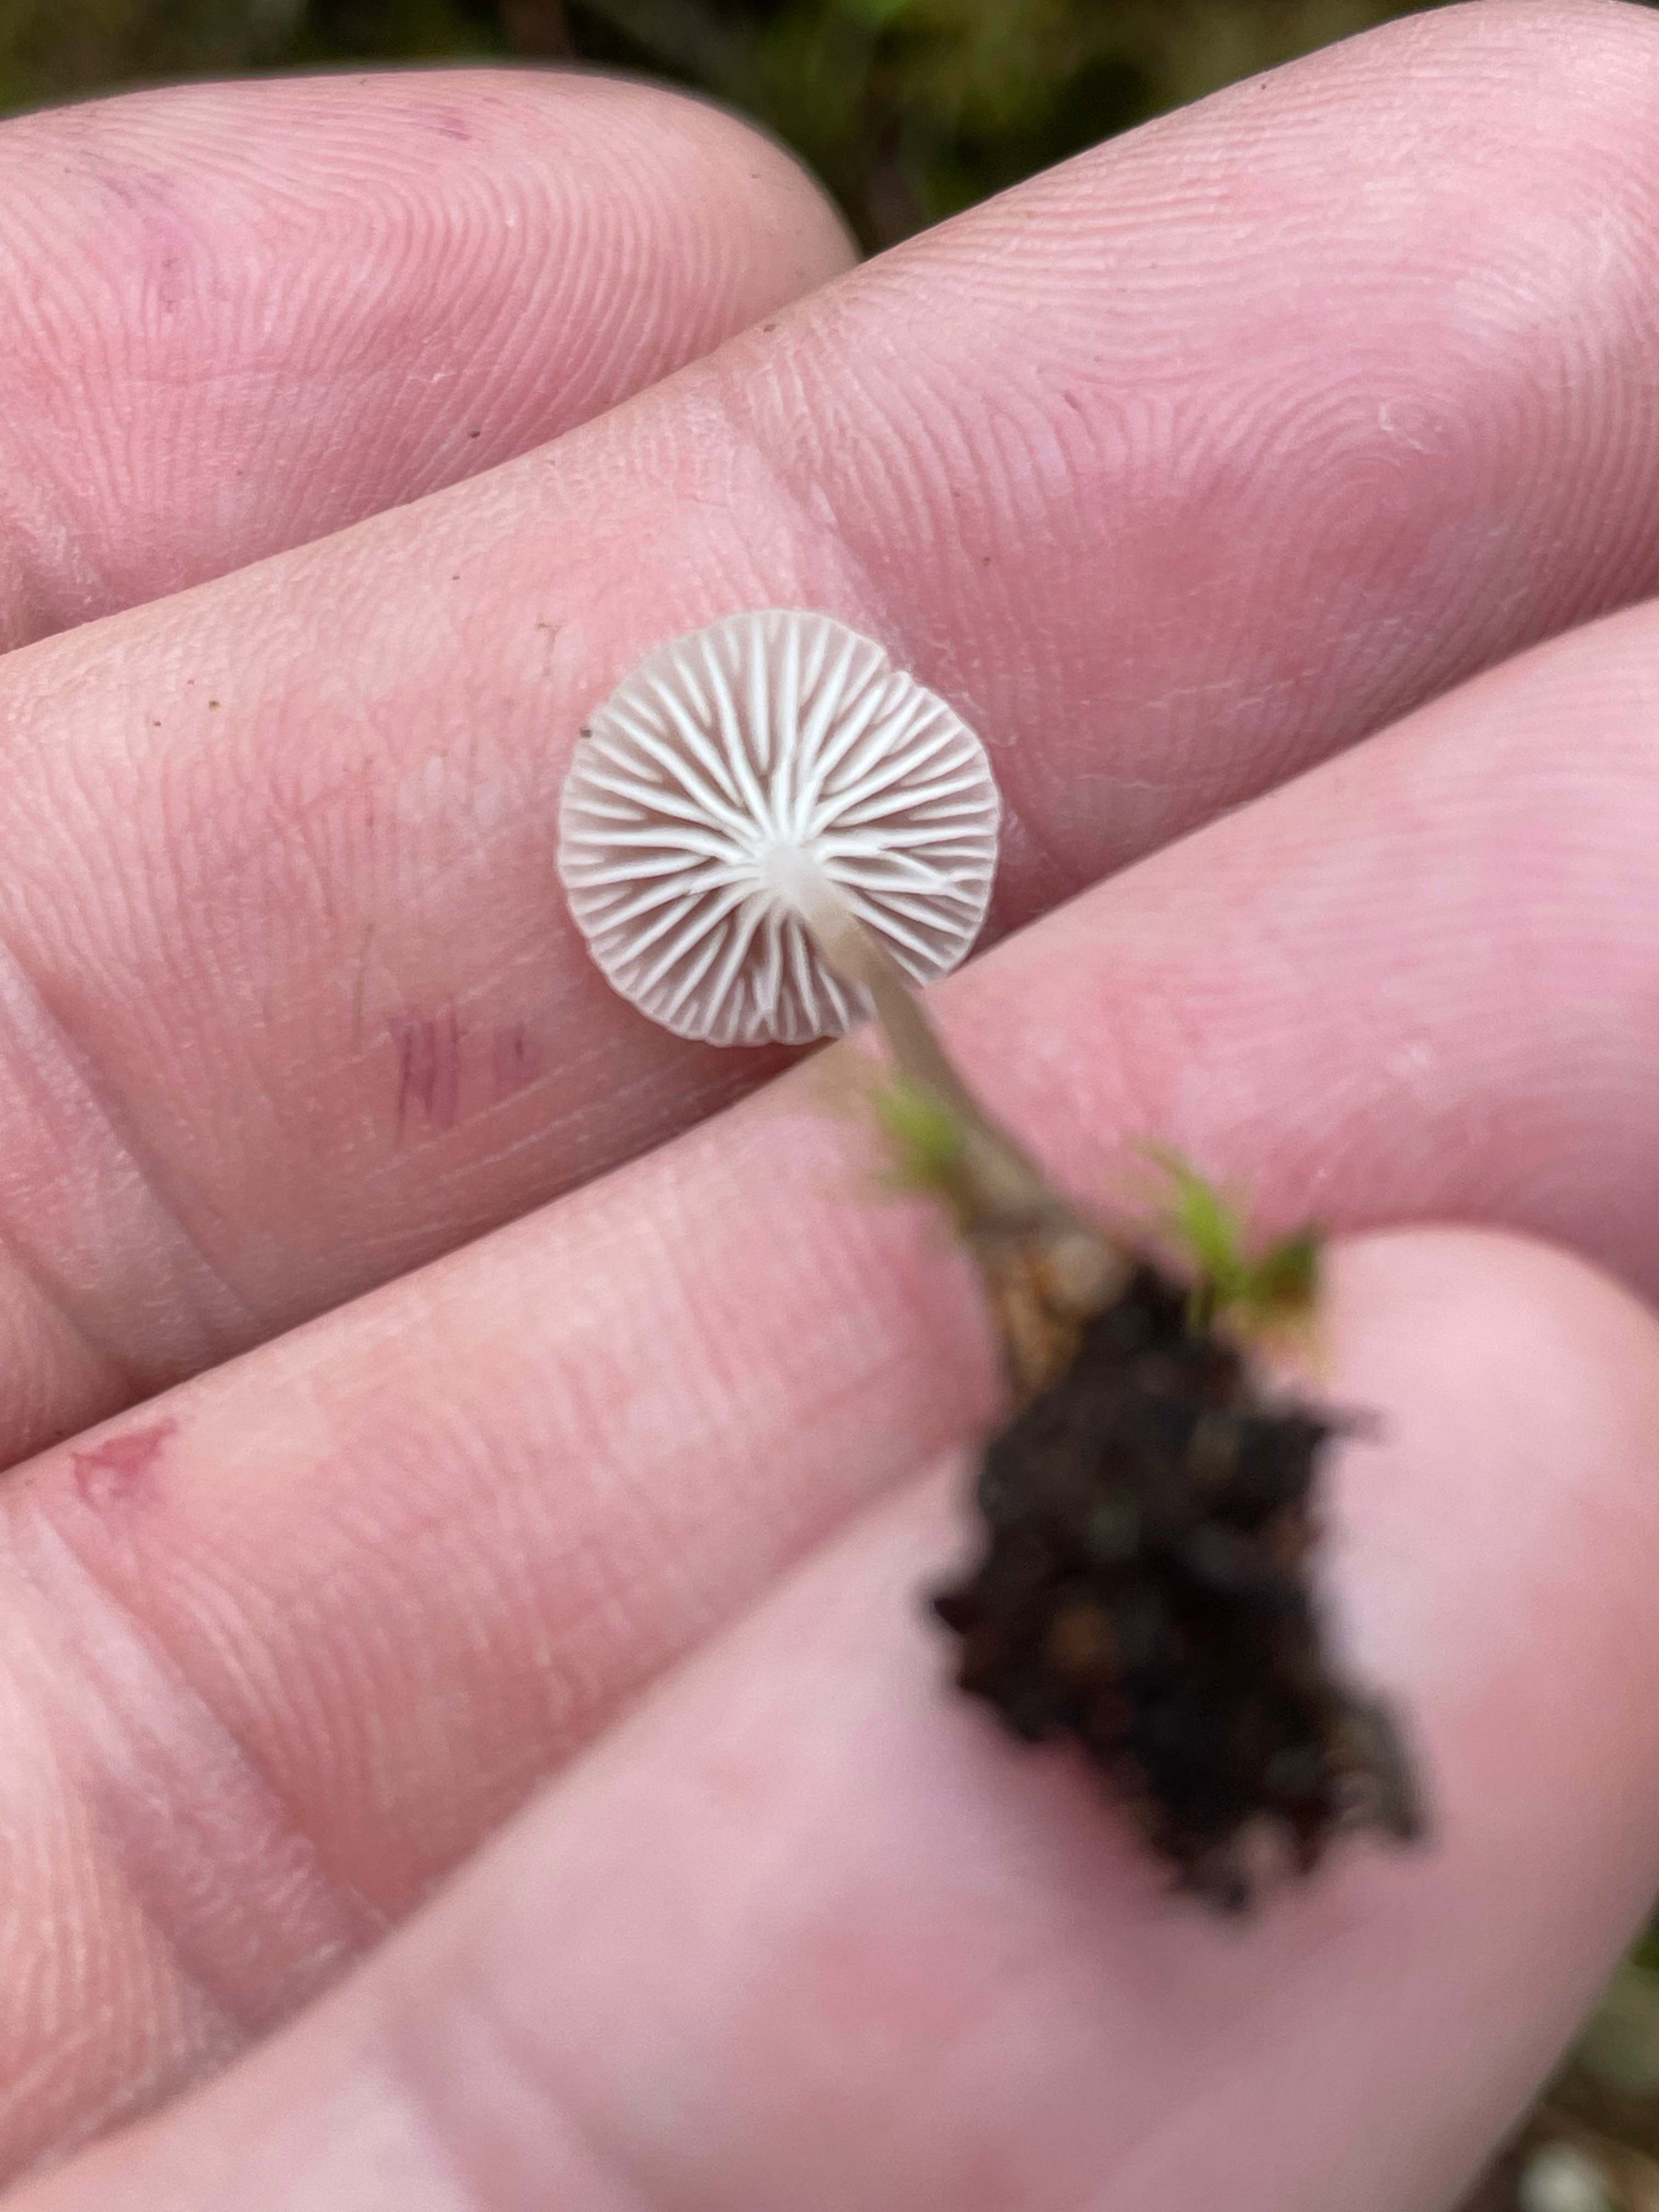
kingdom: Fungi
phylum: Basidiomycota
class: Agaricomycetes
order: Agaricales
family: Mycenaceae
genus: Roridomyces
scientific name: Roridomyces roridus
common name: slimfod
